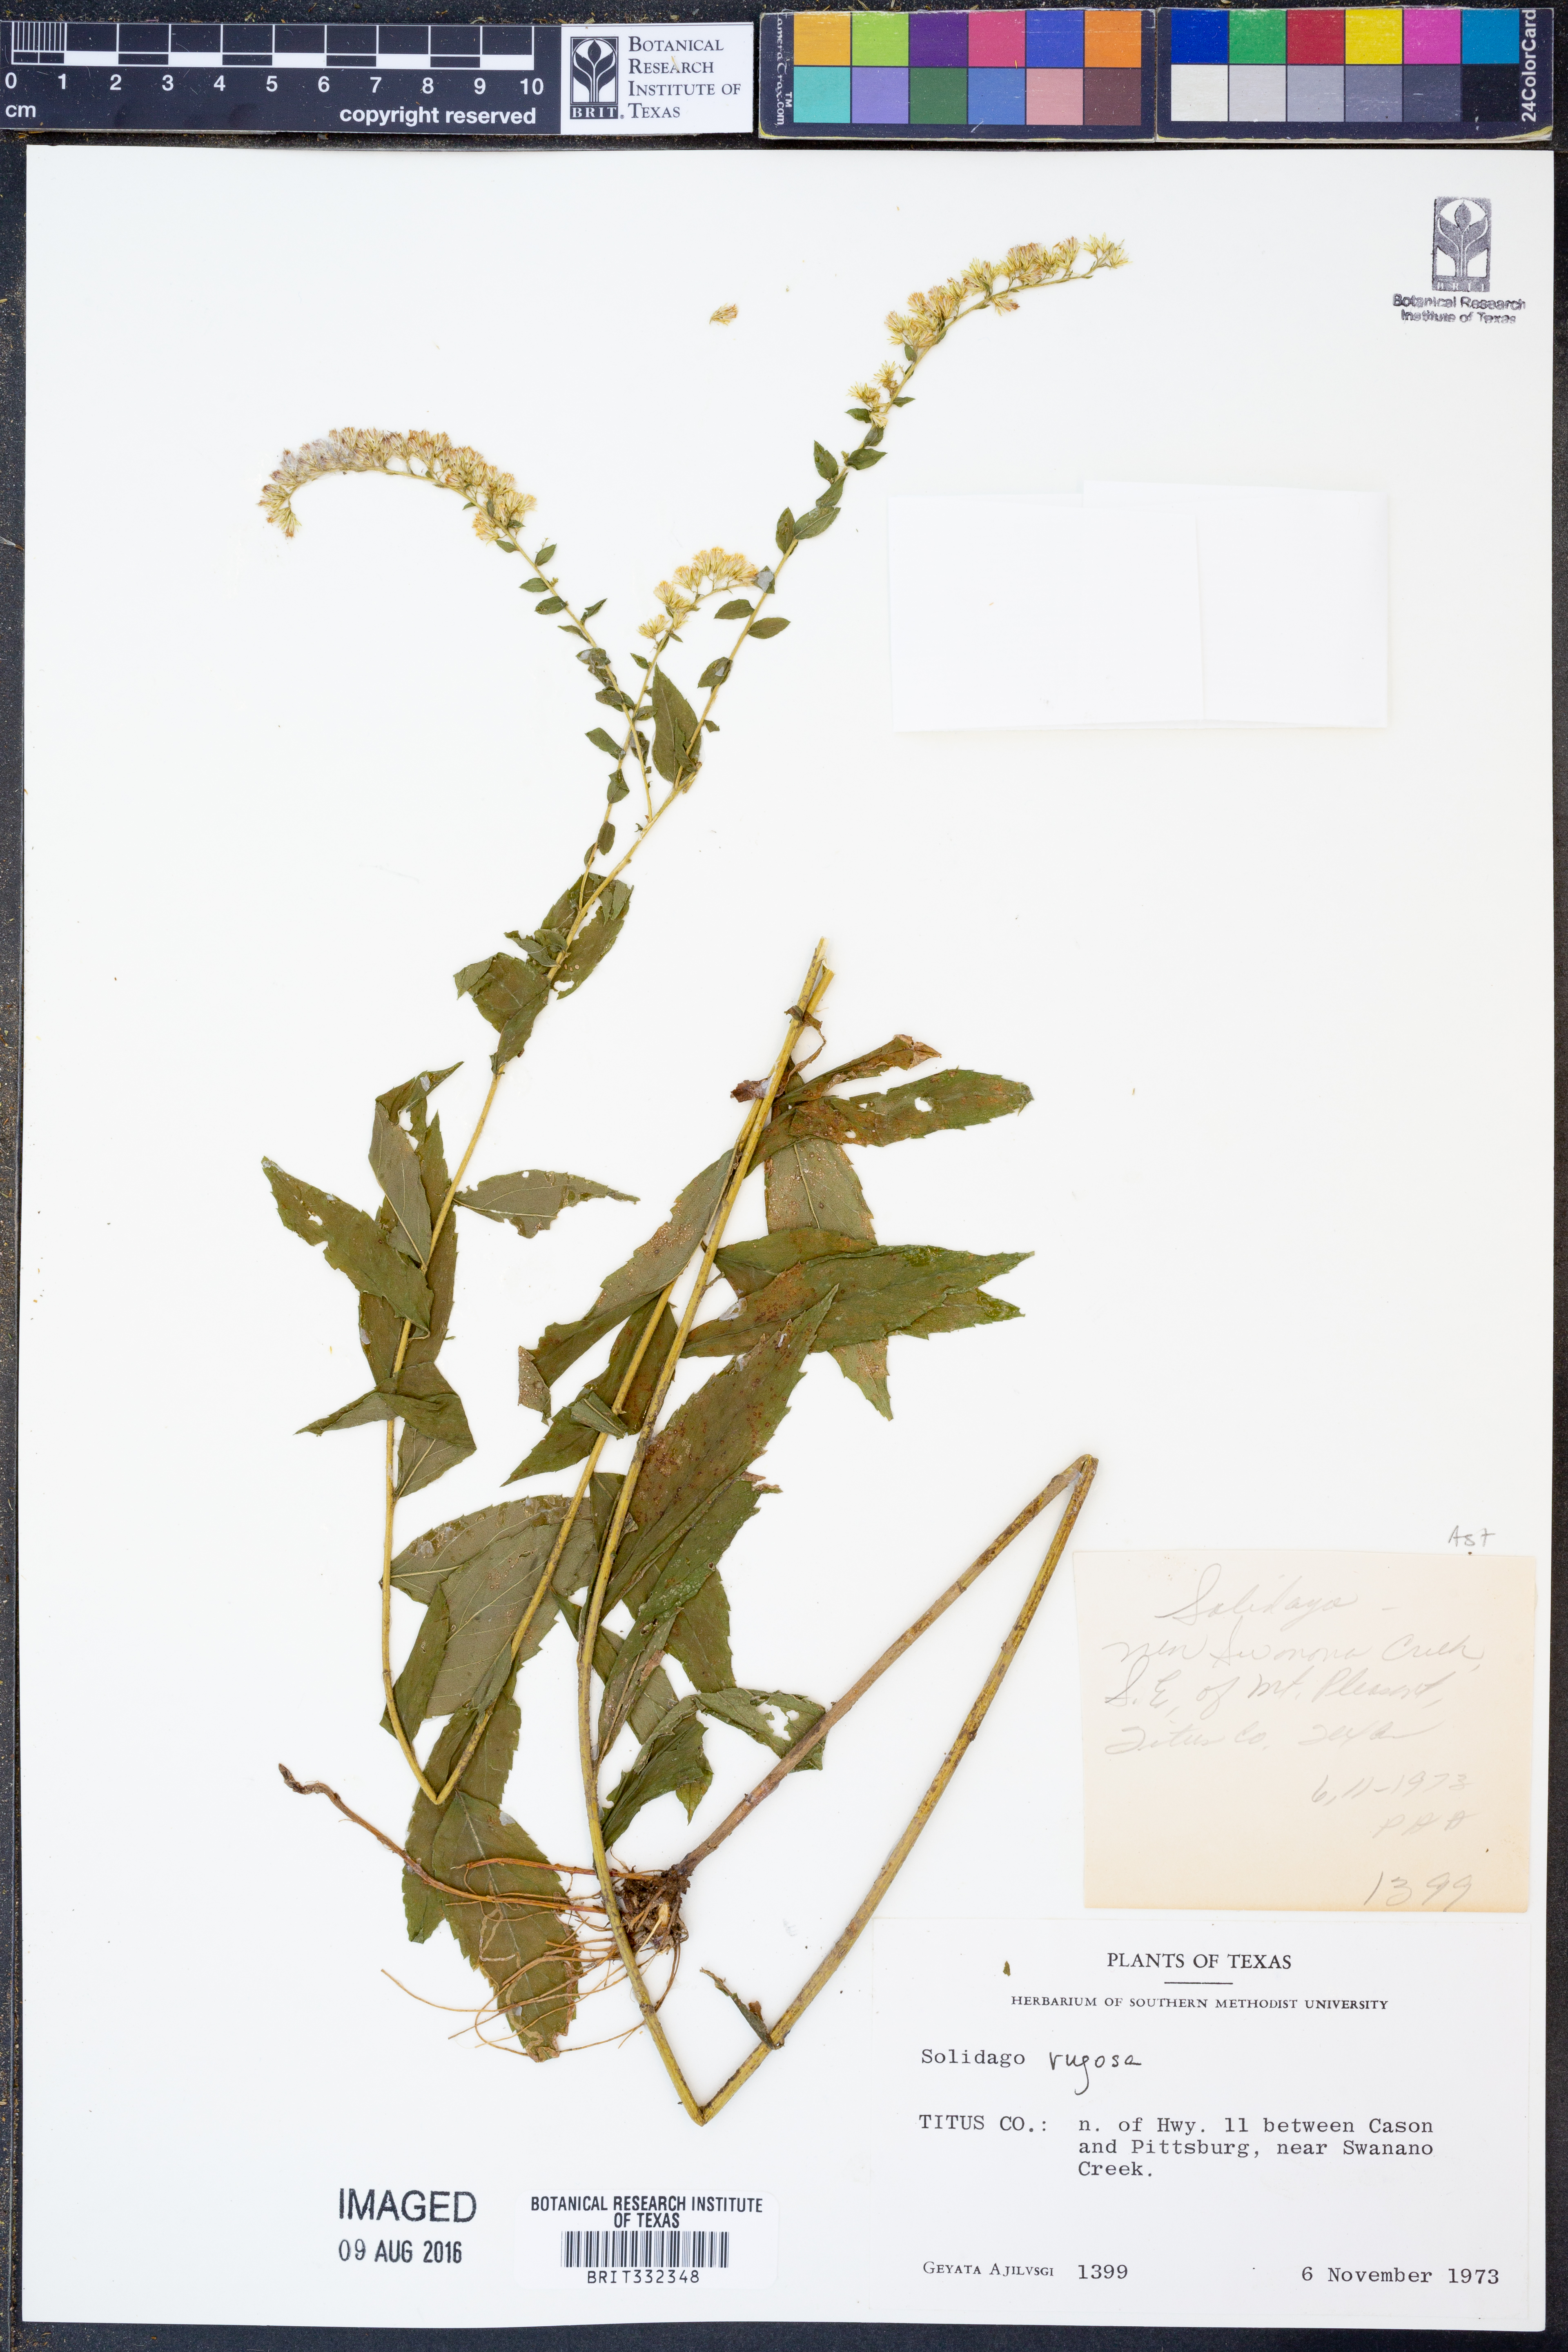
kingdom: Plantae
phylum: Tracheophyta
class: Magnoliopsida
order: Asterales
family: Asteraceae
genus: Solidago
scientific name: Solidago rugosa
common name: Rough-stemmed goldenrod
